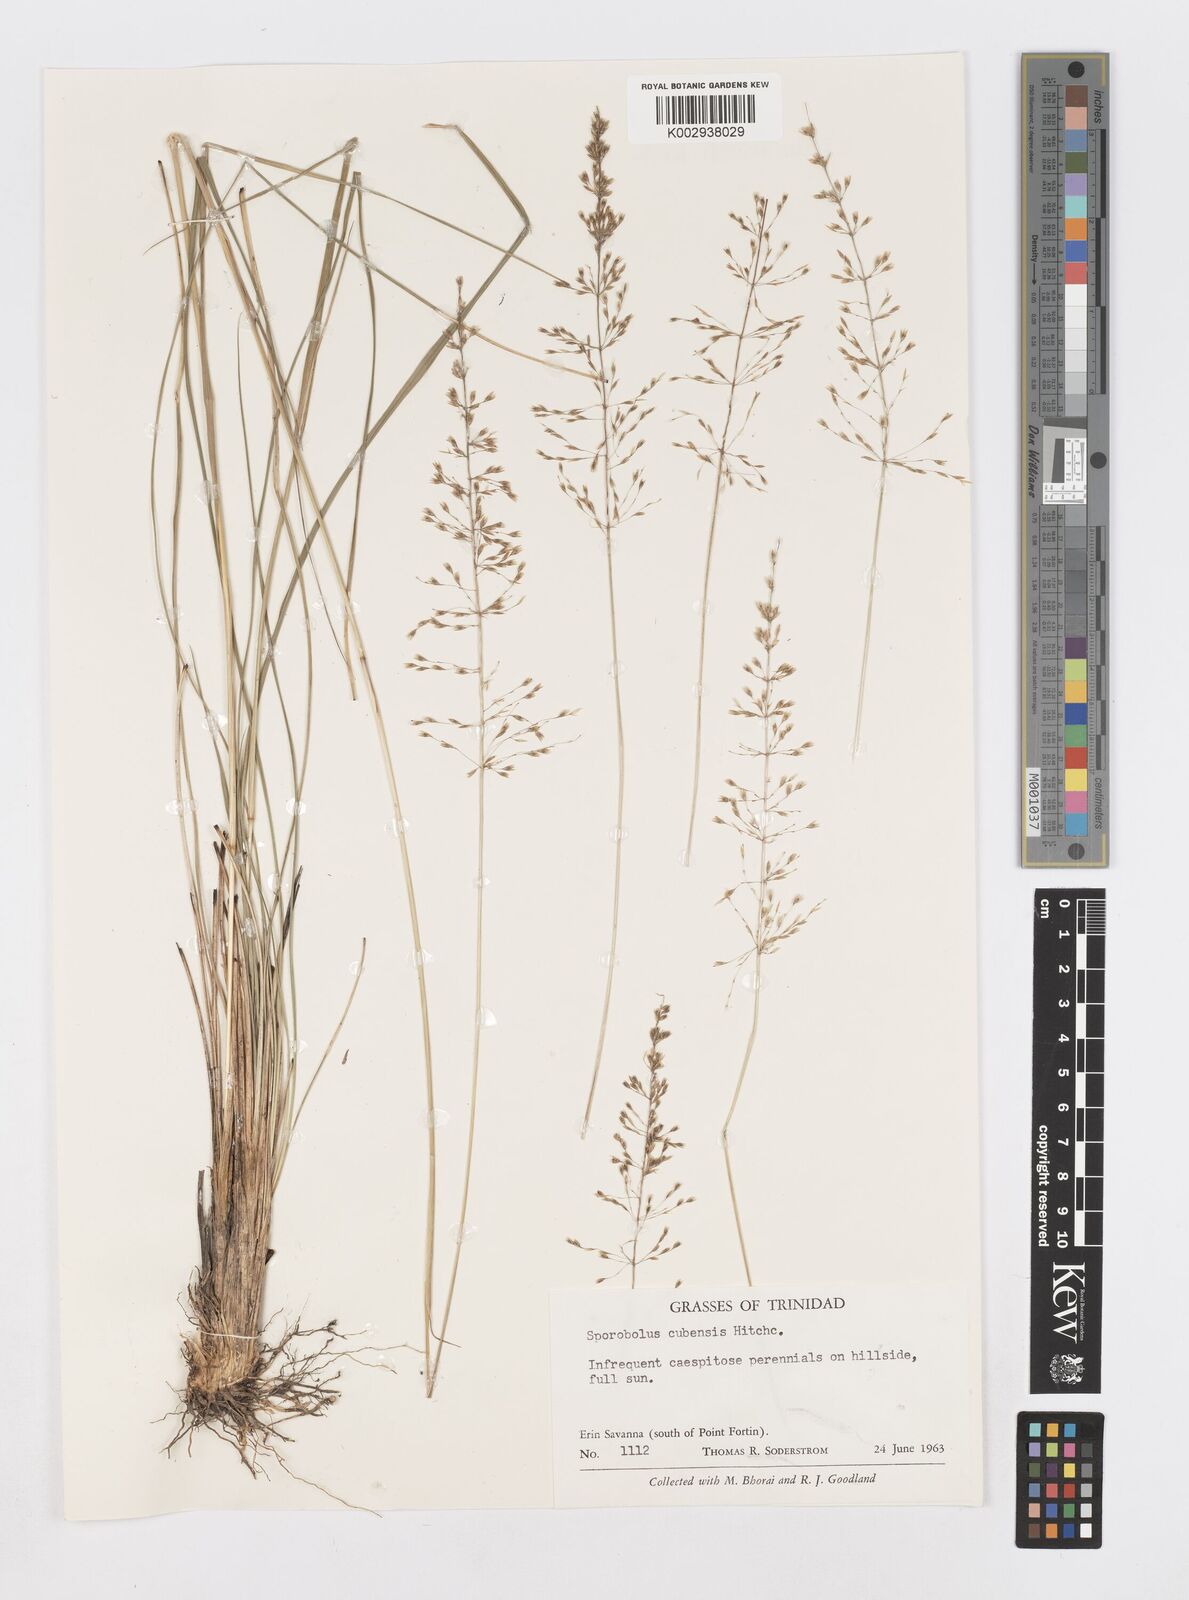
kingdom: Plantae
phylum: Tracheophyta
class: Liliopsida
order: Poales
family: Poaceae
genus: Sporobolus
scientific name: Sporobolus cubensis
